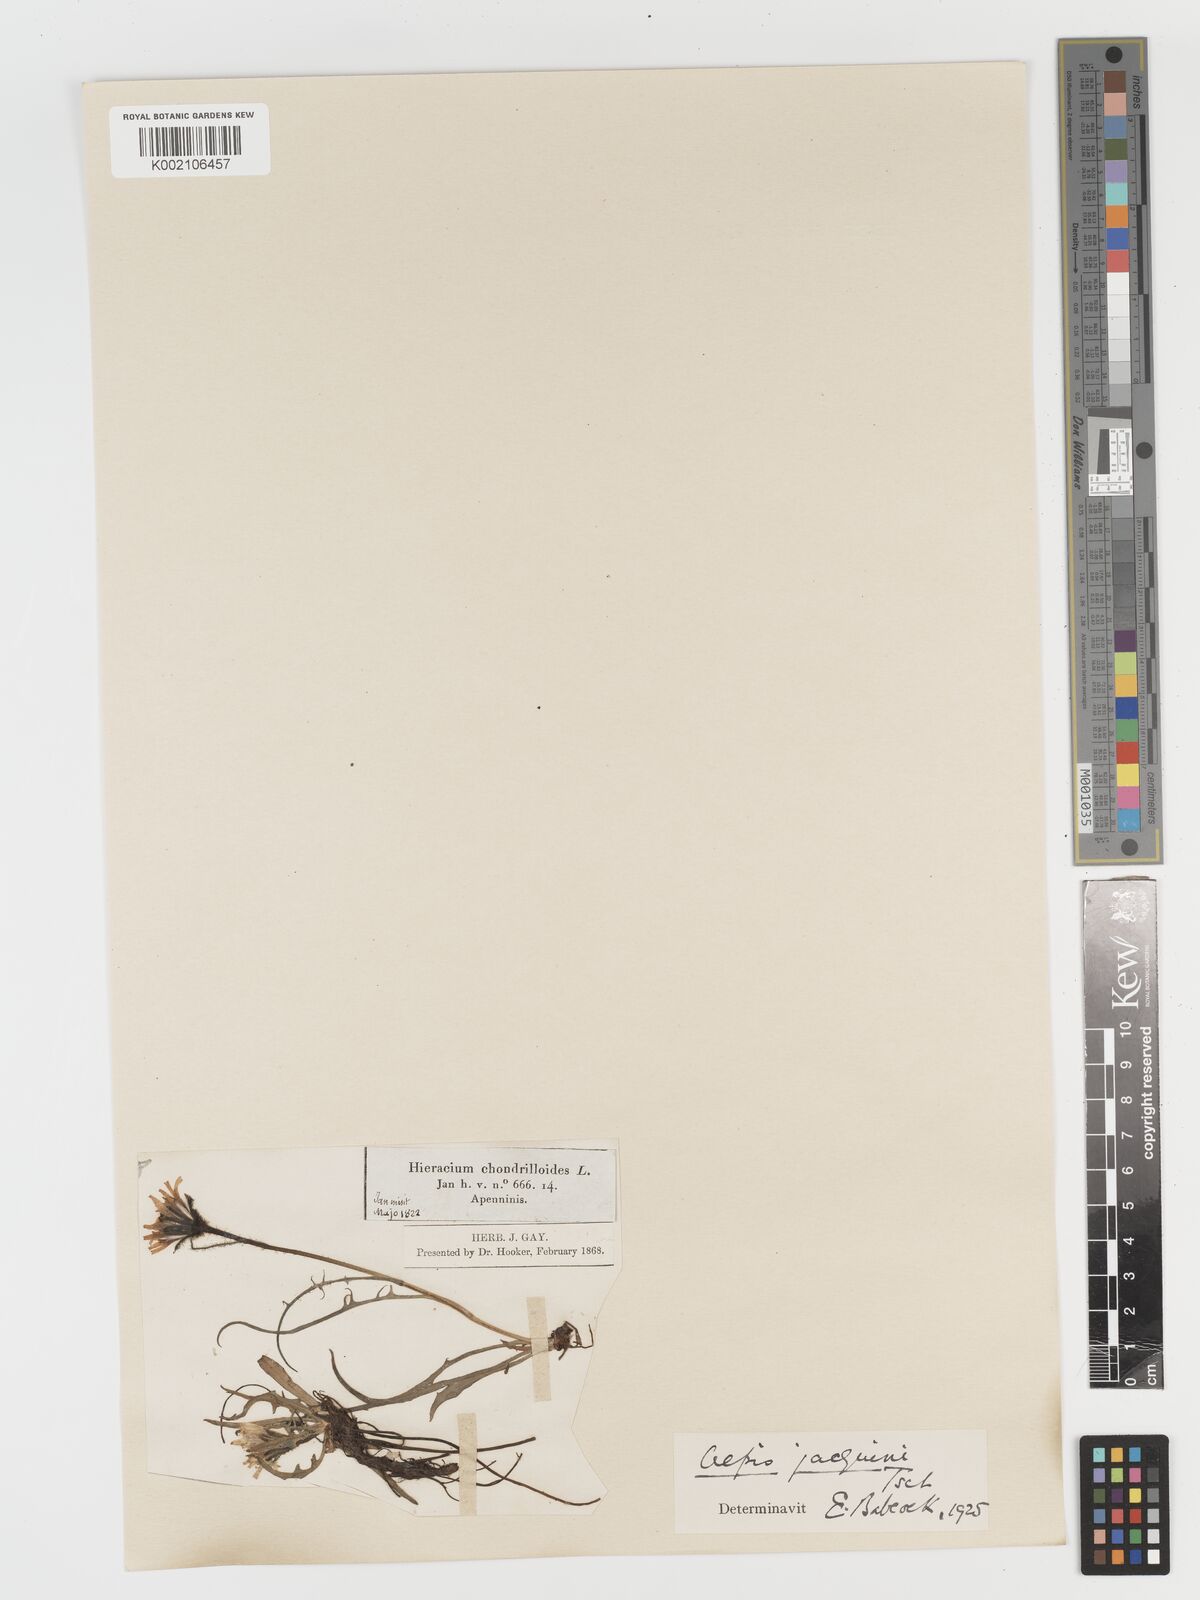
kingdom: Plantae
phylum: Tracheophyta
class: Magnoliopsida
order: Asterales
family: Asteraceae
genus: Crepis
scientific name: Crepis jacquinii
